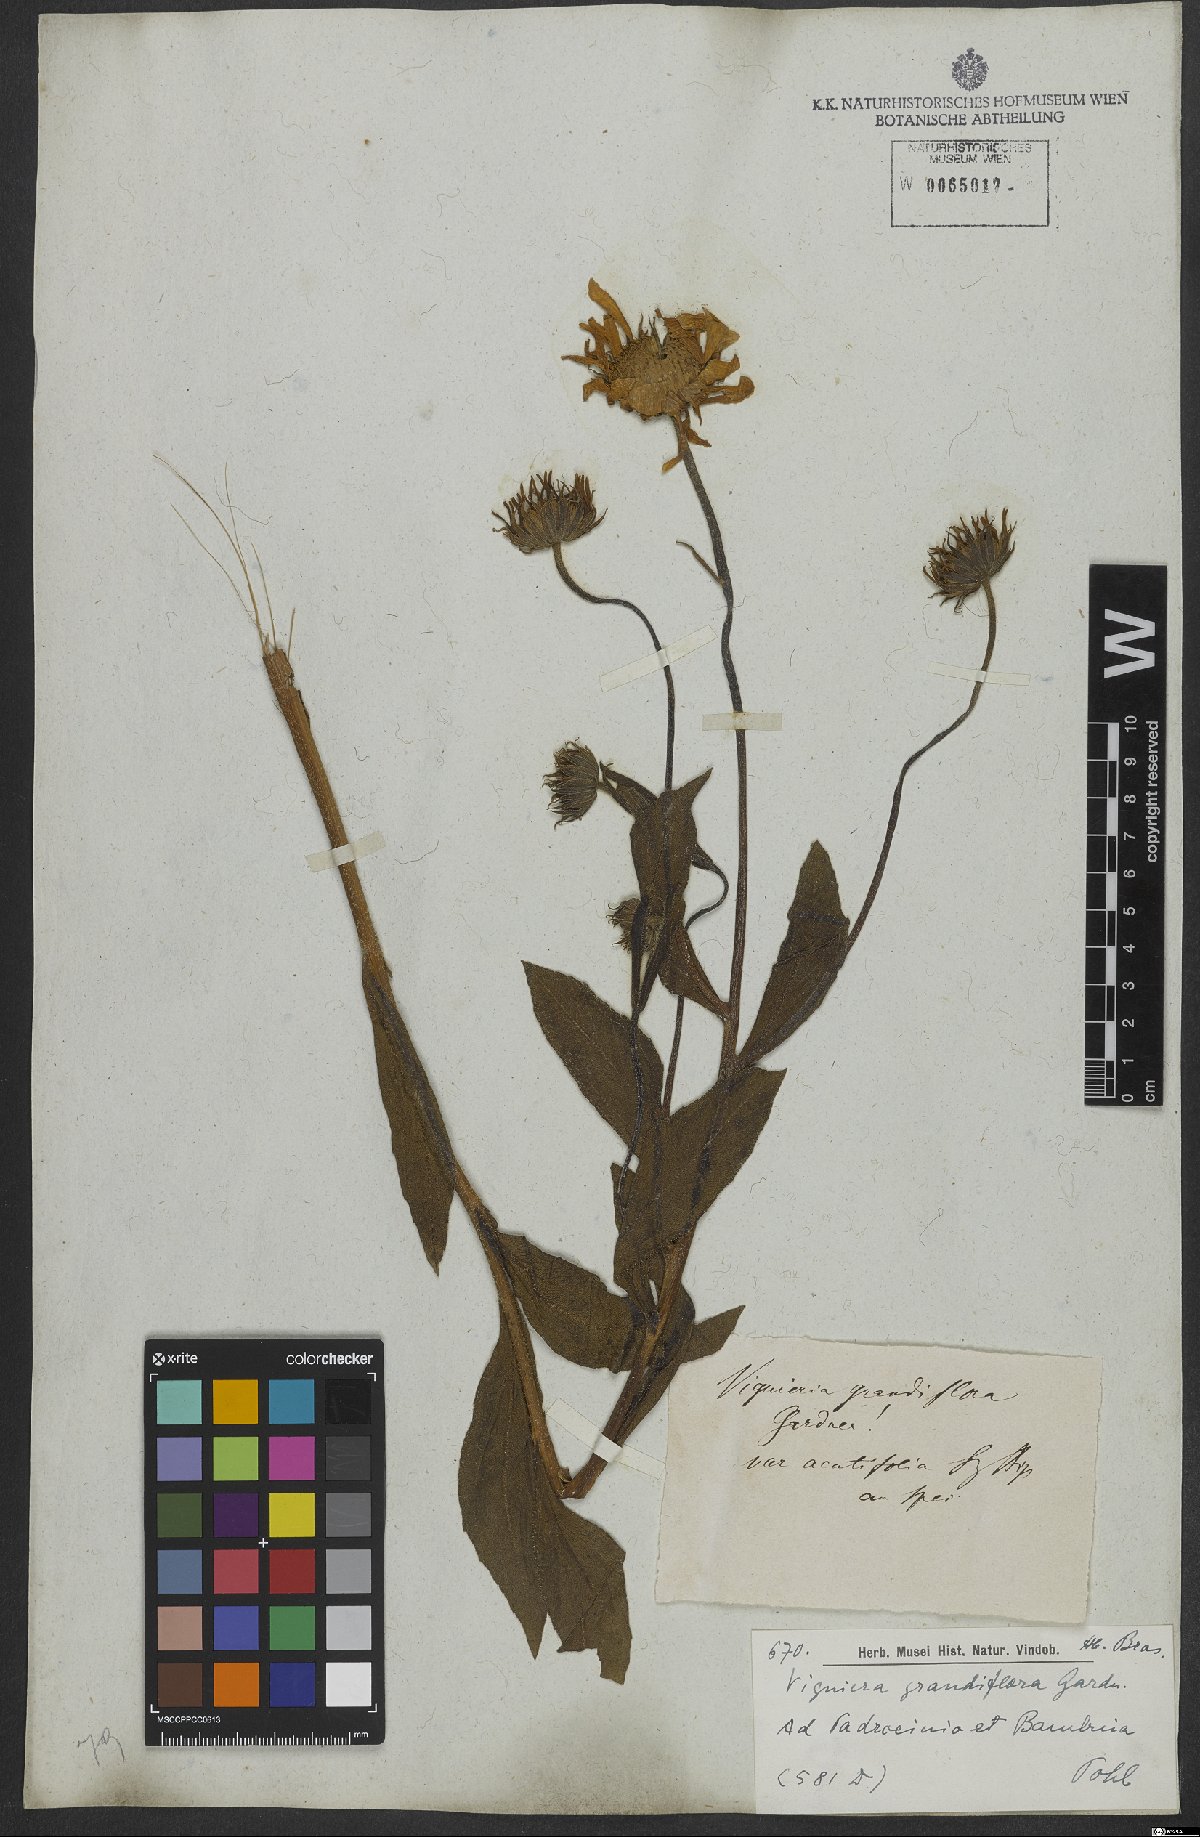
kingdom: Plantae
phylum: Tracheophyta
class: Magnoliopsida
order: Asterales
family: Asteraceae
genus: Aldama
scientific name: Aldama discolor
